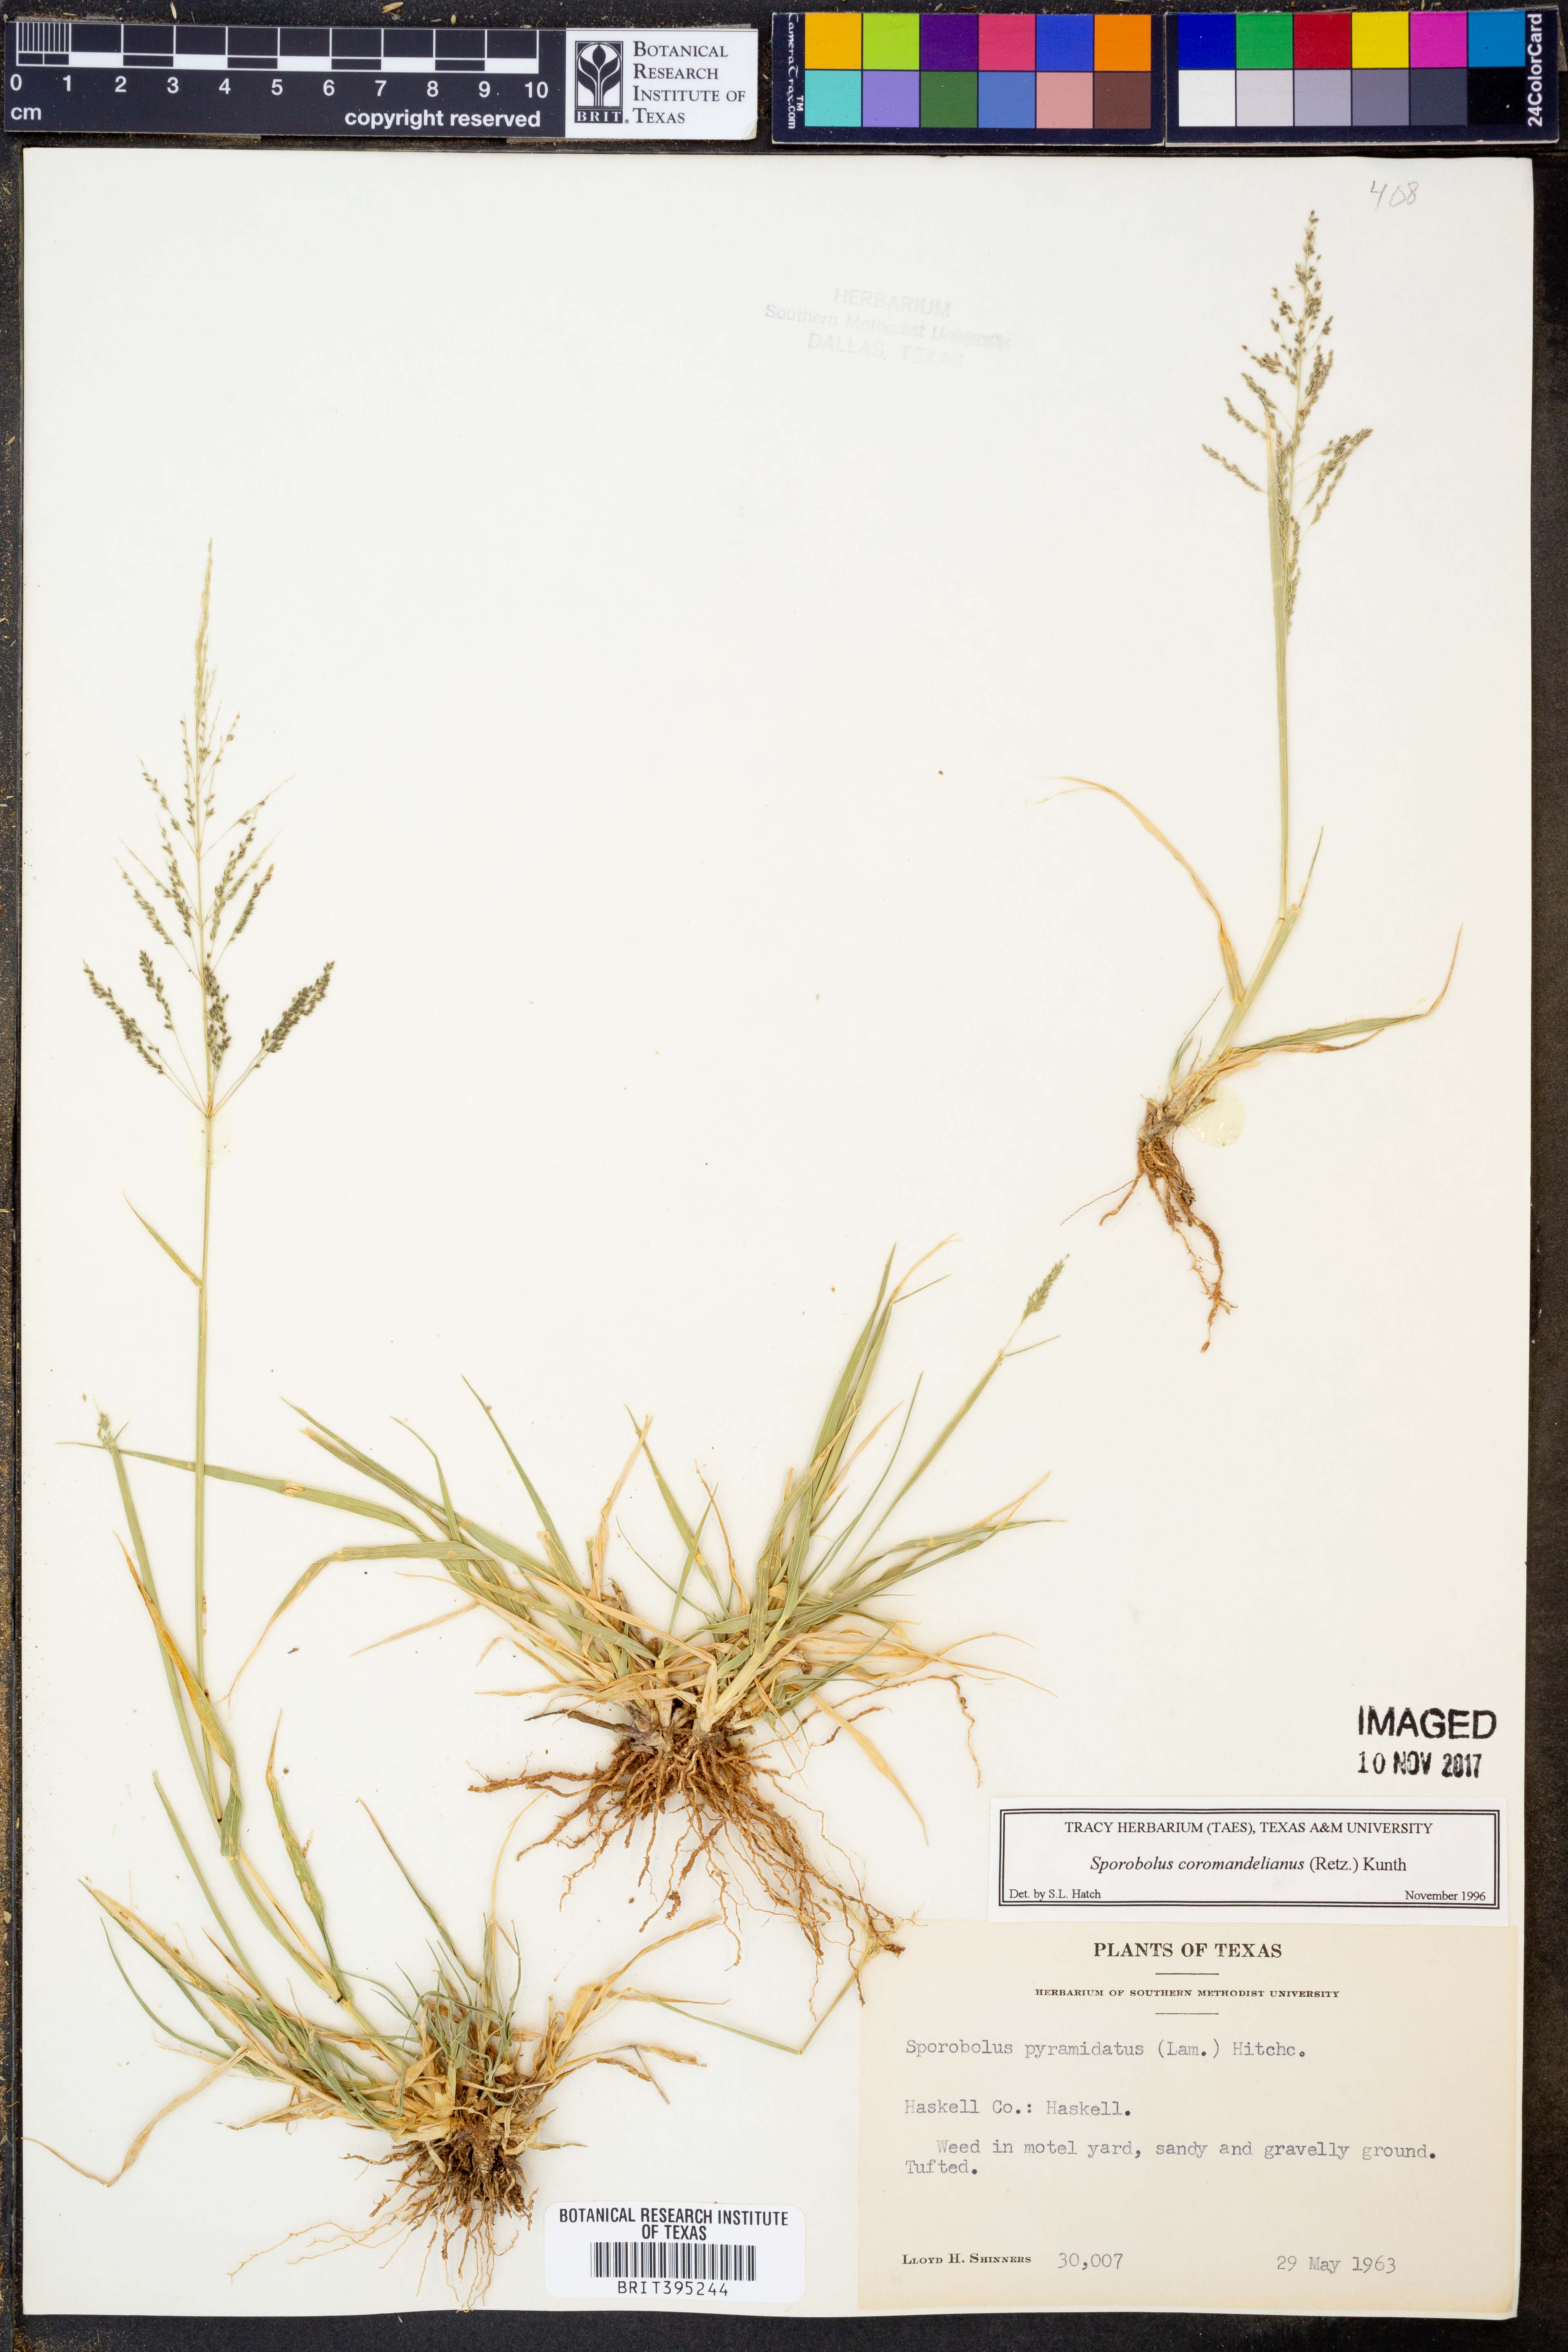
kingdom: Plantae
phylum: Tracheophyta
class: Liliopsida
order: Poales
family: Poaceae
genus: Sporobolus
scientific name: Sporobolus coromandelianus
